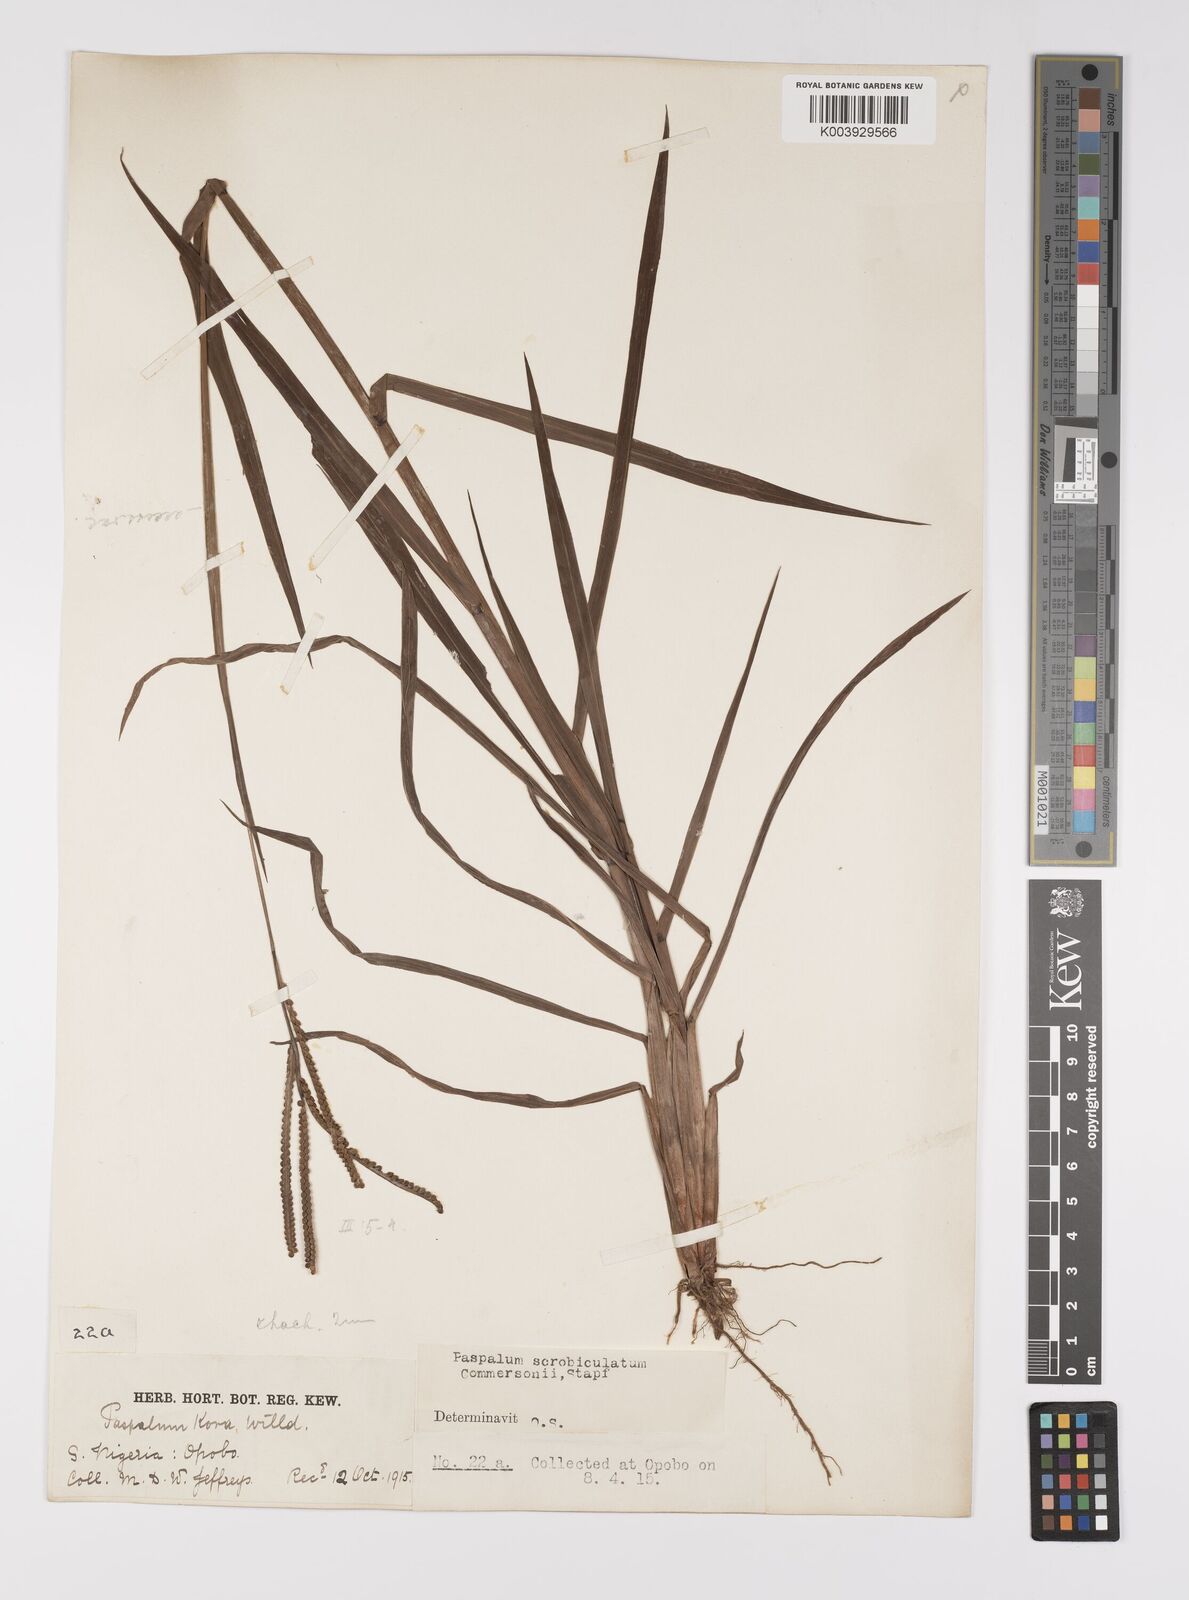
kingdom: Plantae
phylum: Tracheophyta
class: Liliopsida
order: Poales
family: Poaceae
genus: Paspalum
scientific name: Paspalum scrobiculatum
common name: Kodo millet
